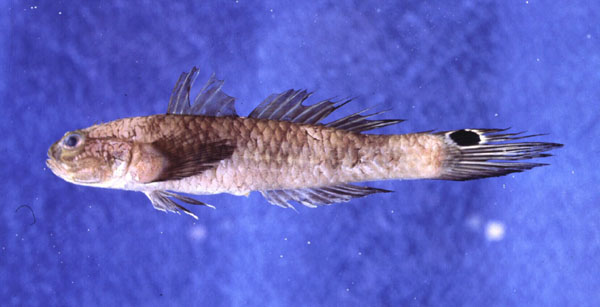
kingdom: Animalia
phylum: Chordata
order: Perciformes
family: Gobiidae
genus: Parachaeturichthys
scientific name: Parachaeturichthys polynema
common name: Taileyed goby
